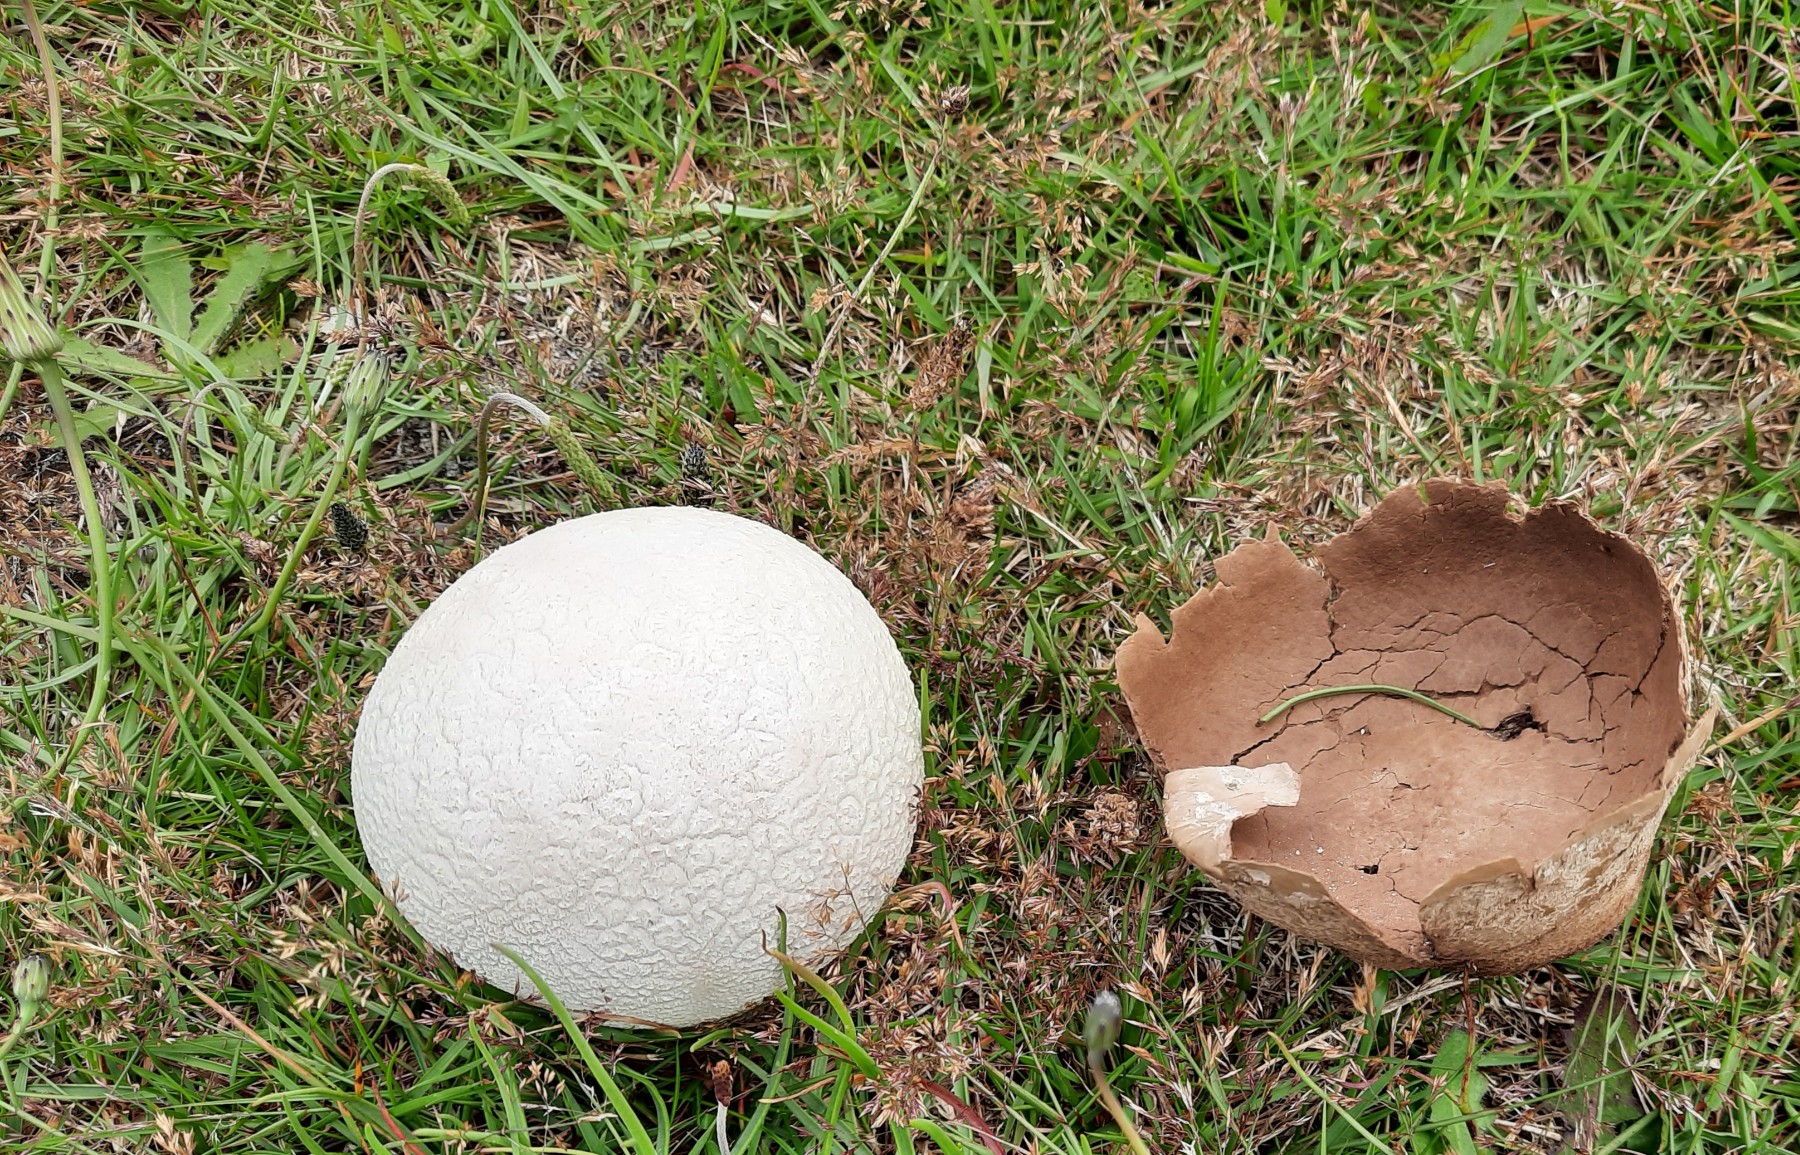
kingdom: Fungi
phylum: Basidiomycota
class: Agaricomycetes
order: Agaricales
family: Lycoperdaceae
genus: Bovistella
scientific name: Bovistella utriformis
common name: skællet støvbold
